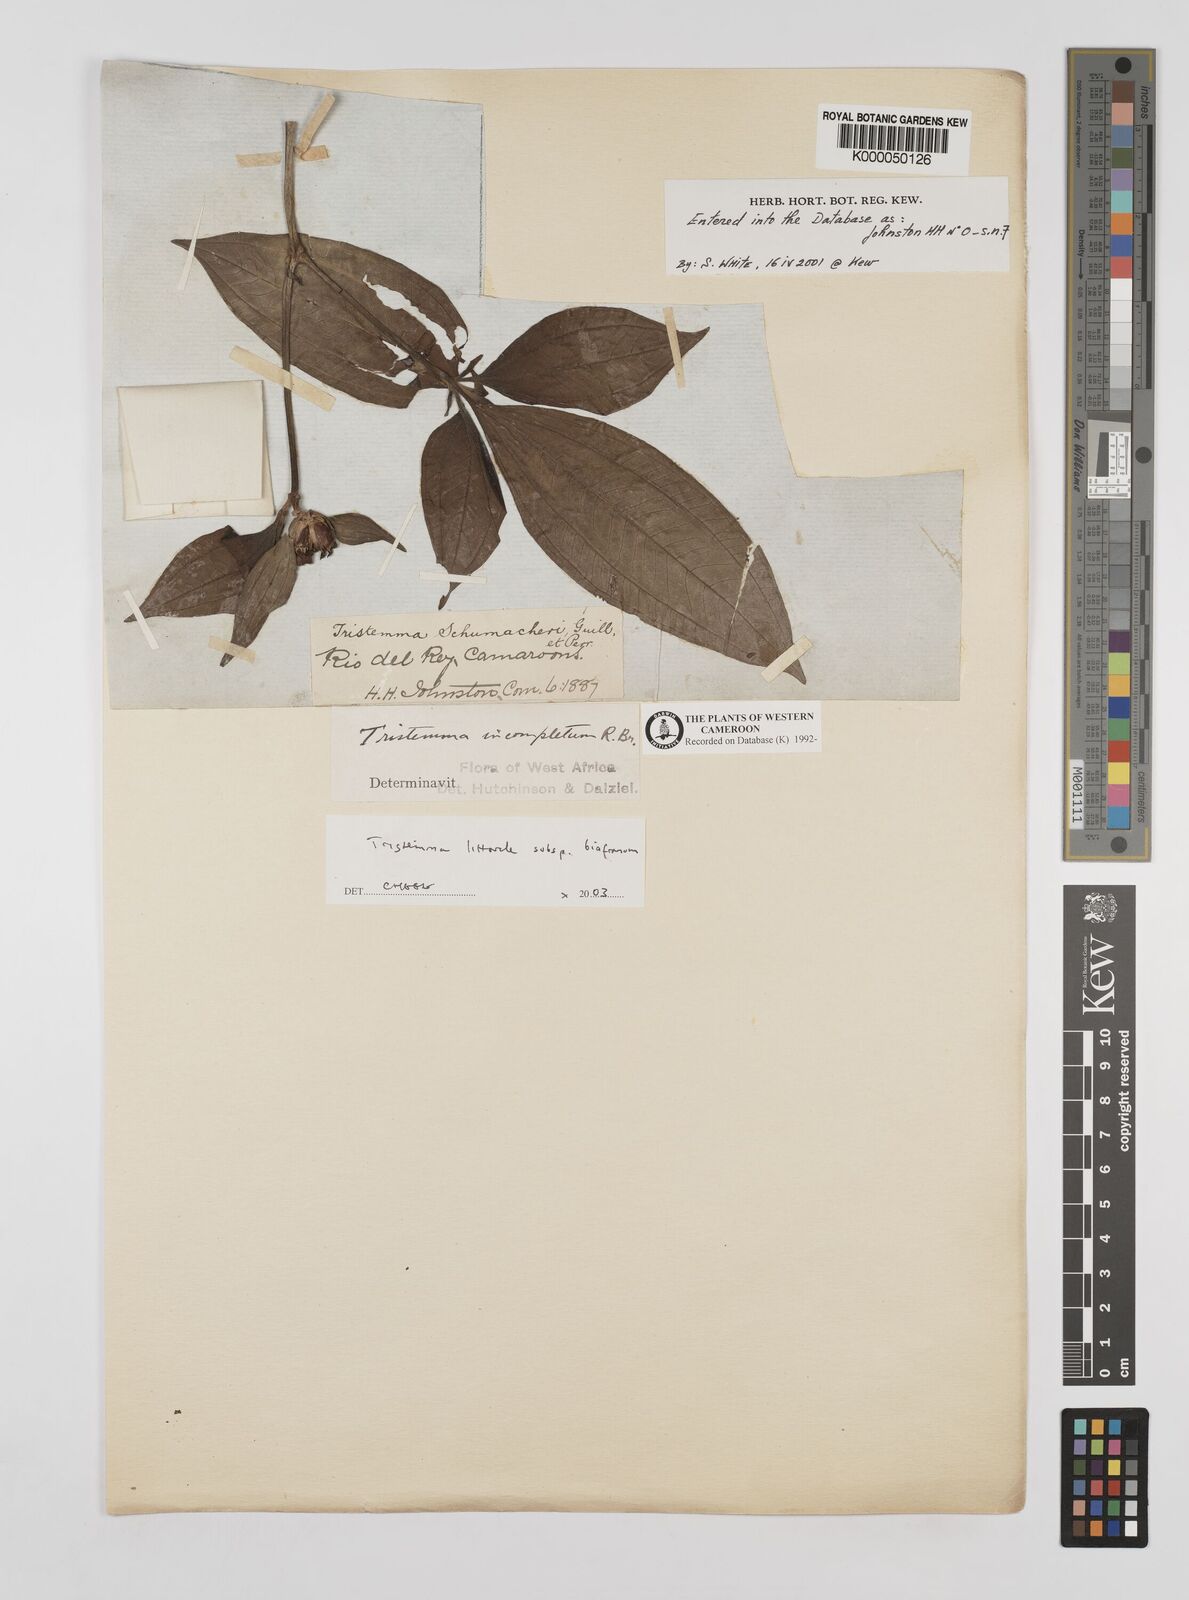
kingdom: Plantae
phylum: Tracheophyta
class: Magnoliopsida
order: Myrtales
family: Melastomataceae
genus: Tristemma
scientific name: Tristemma littorale
